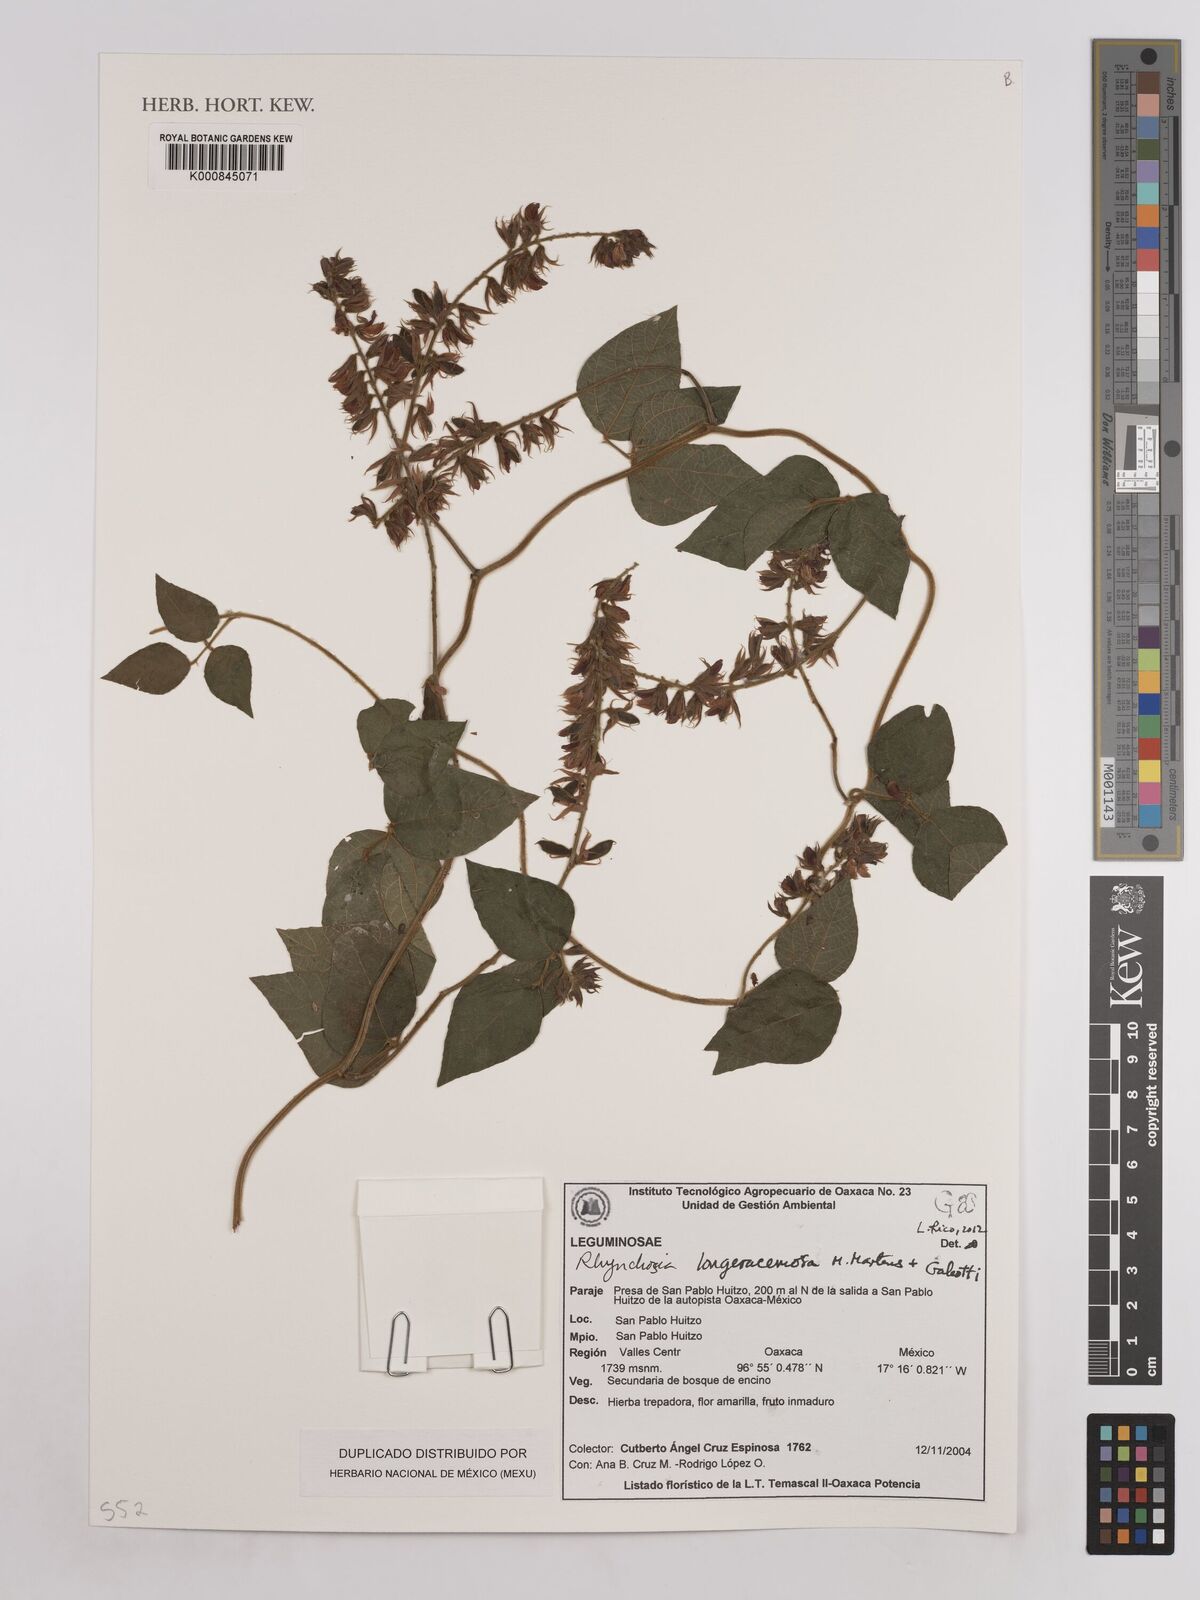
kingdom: Plantae
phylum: Tracheophyta
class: Magnoliopsida
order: Fabales
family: Fabaceae
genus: Rhynchosia
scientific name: Rhynchosia longeracemosa
